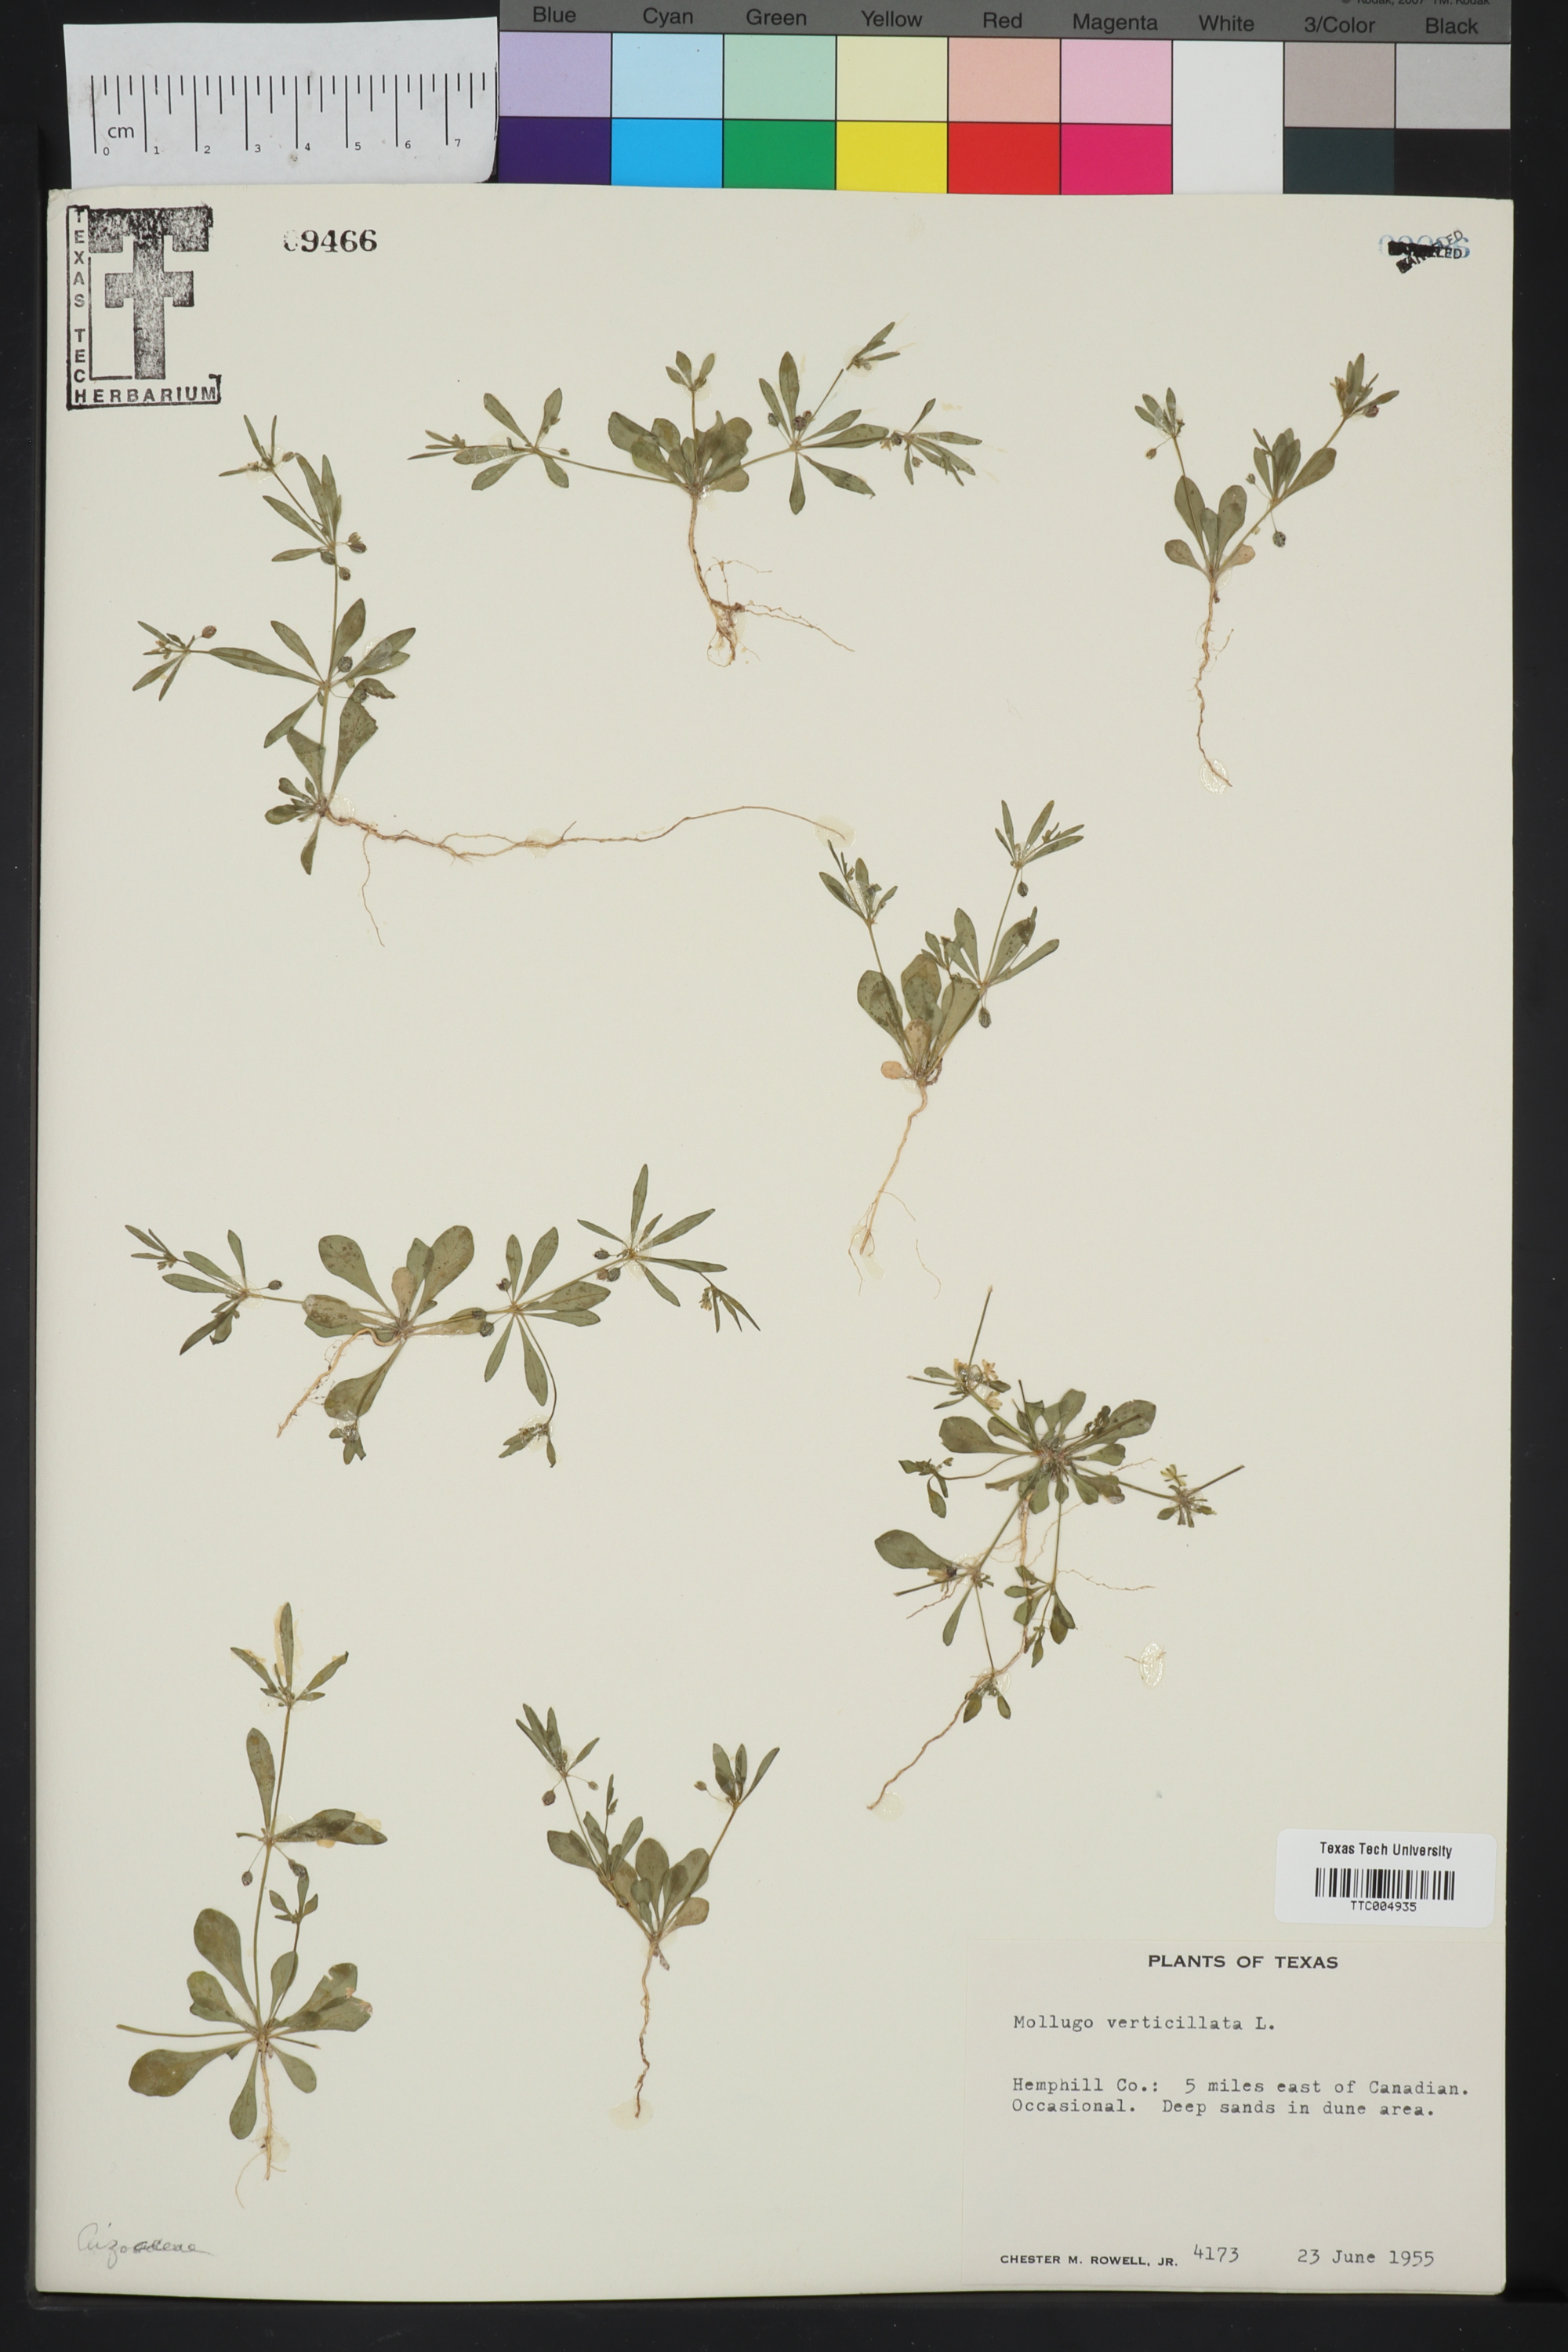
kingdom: Plantae
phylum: Tracheophyta
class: Magnoliopsida
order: Caryophyllales
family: Molluginaceae
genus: Mollugo
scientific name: Mollugo verticillata
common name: Green carpetweed
